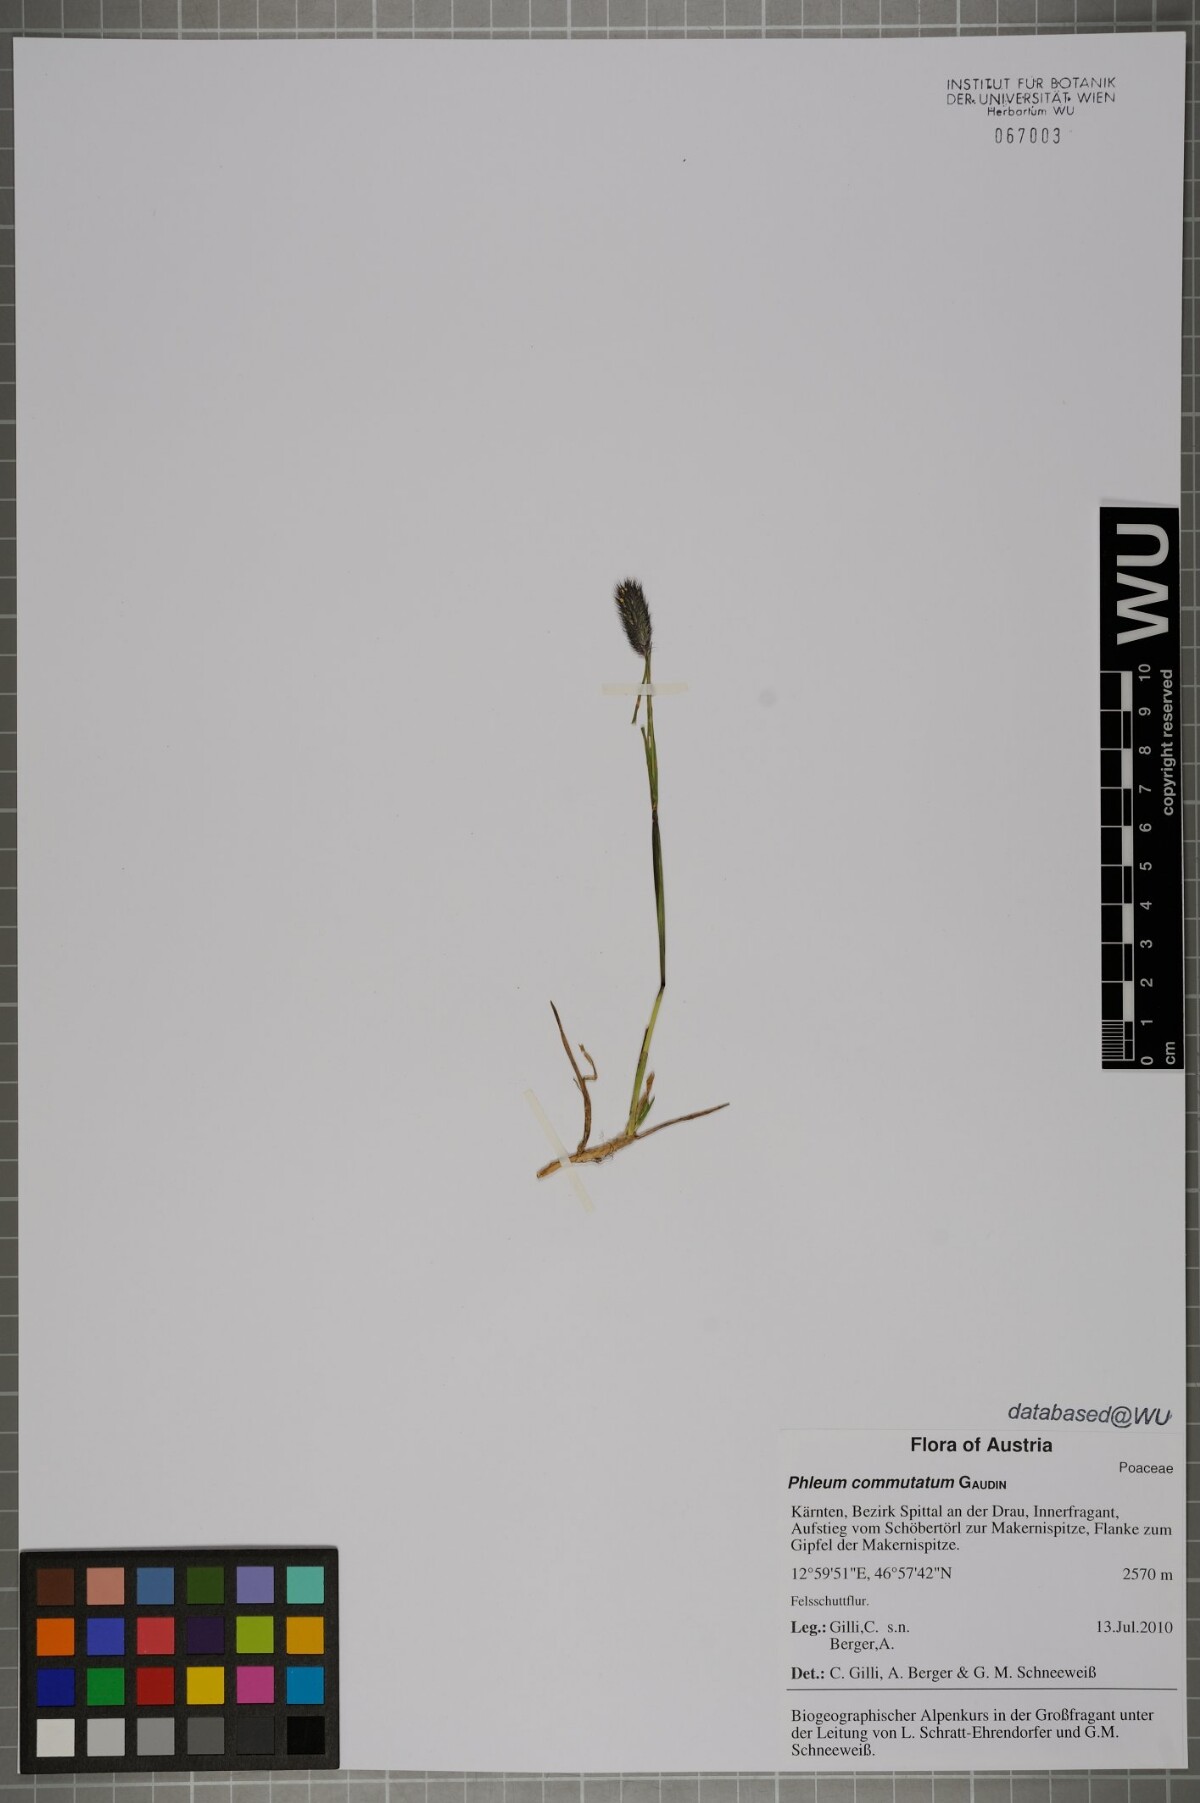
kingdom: Plantae
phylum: Tracheophyta
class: Liliopsida
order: Poales
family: Poaceae
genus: Phleum
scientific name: Phleum alpinum
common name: Alpine cat's-tail
